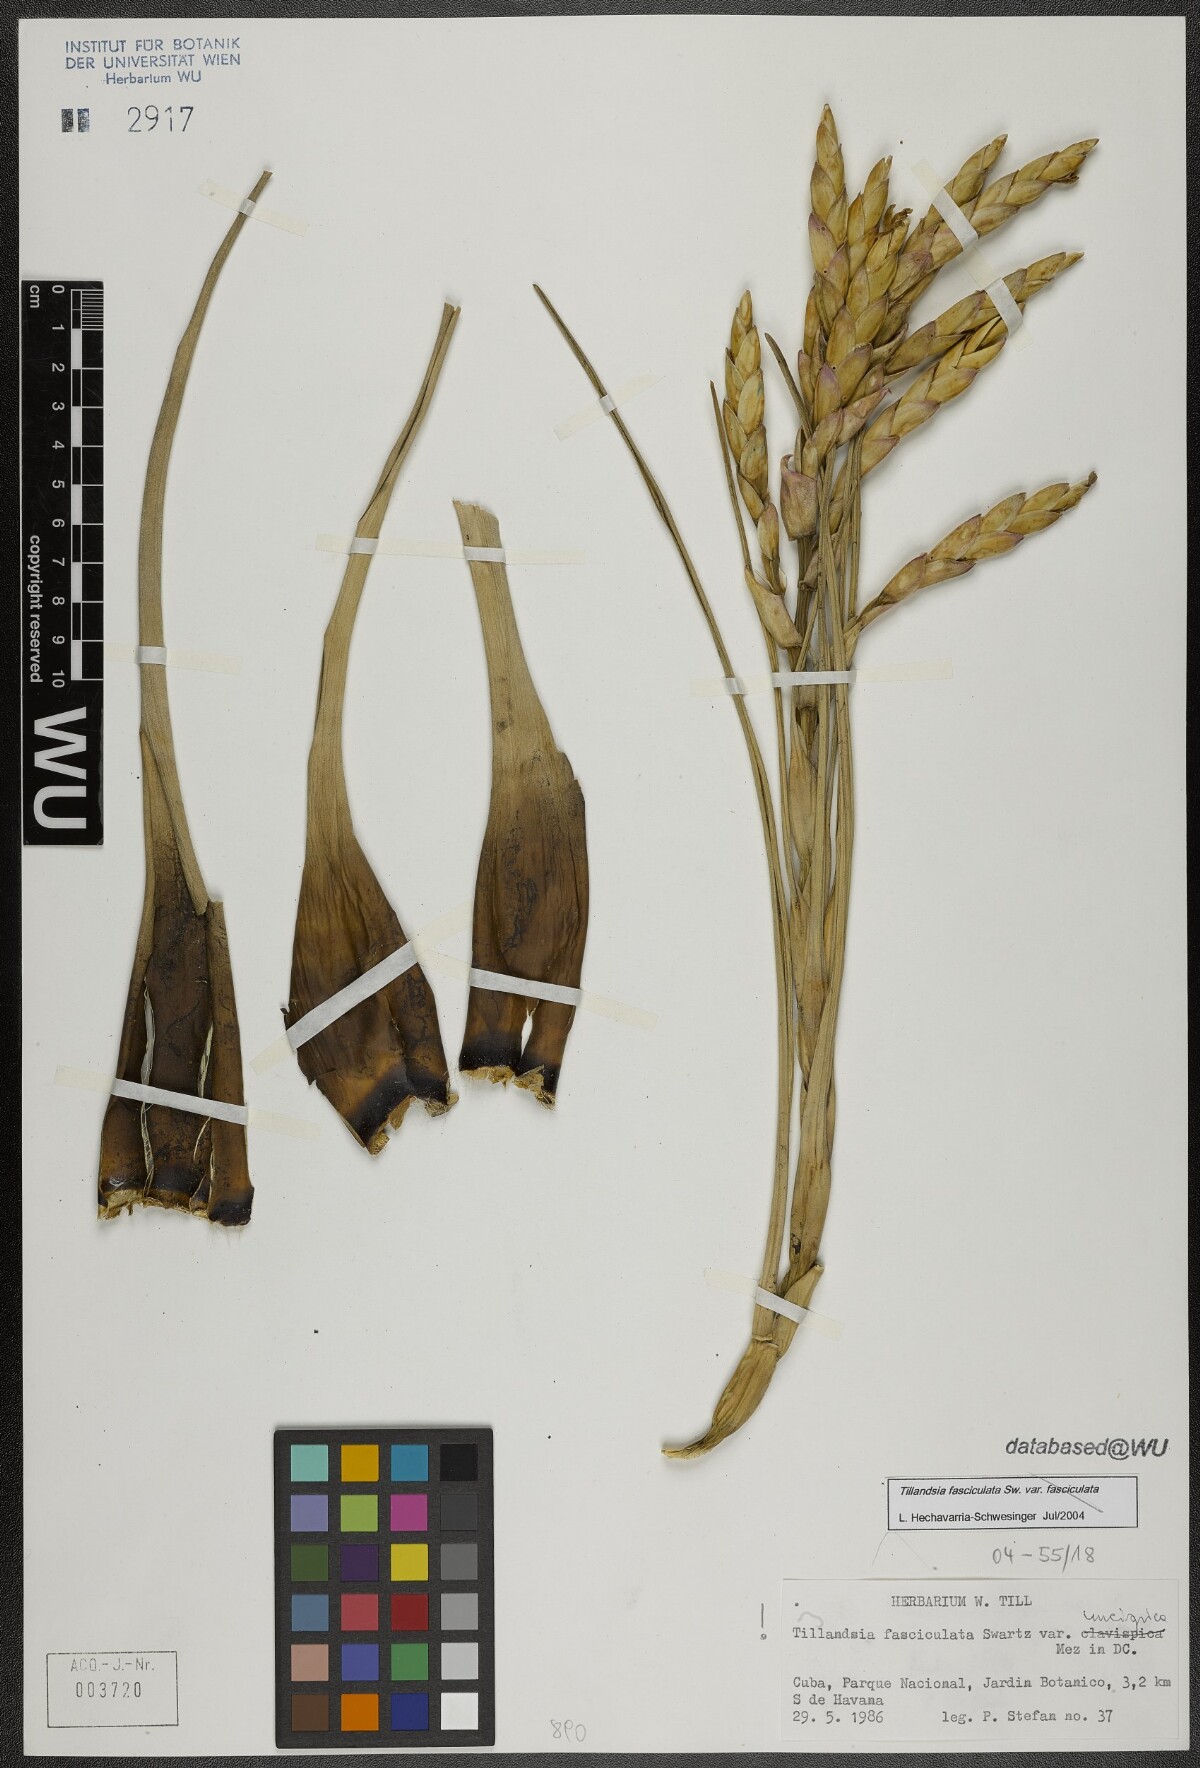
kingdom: Plantae
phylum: Tracheophyta
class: Liliopsida
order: Poales
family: Bromeliaceae
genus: Tillandsia
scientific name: Tillandsia fasciculata
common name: Giant airplant
